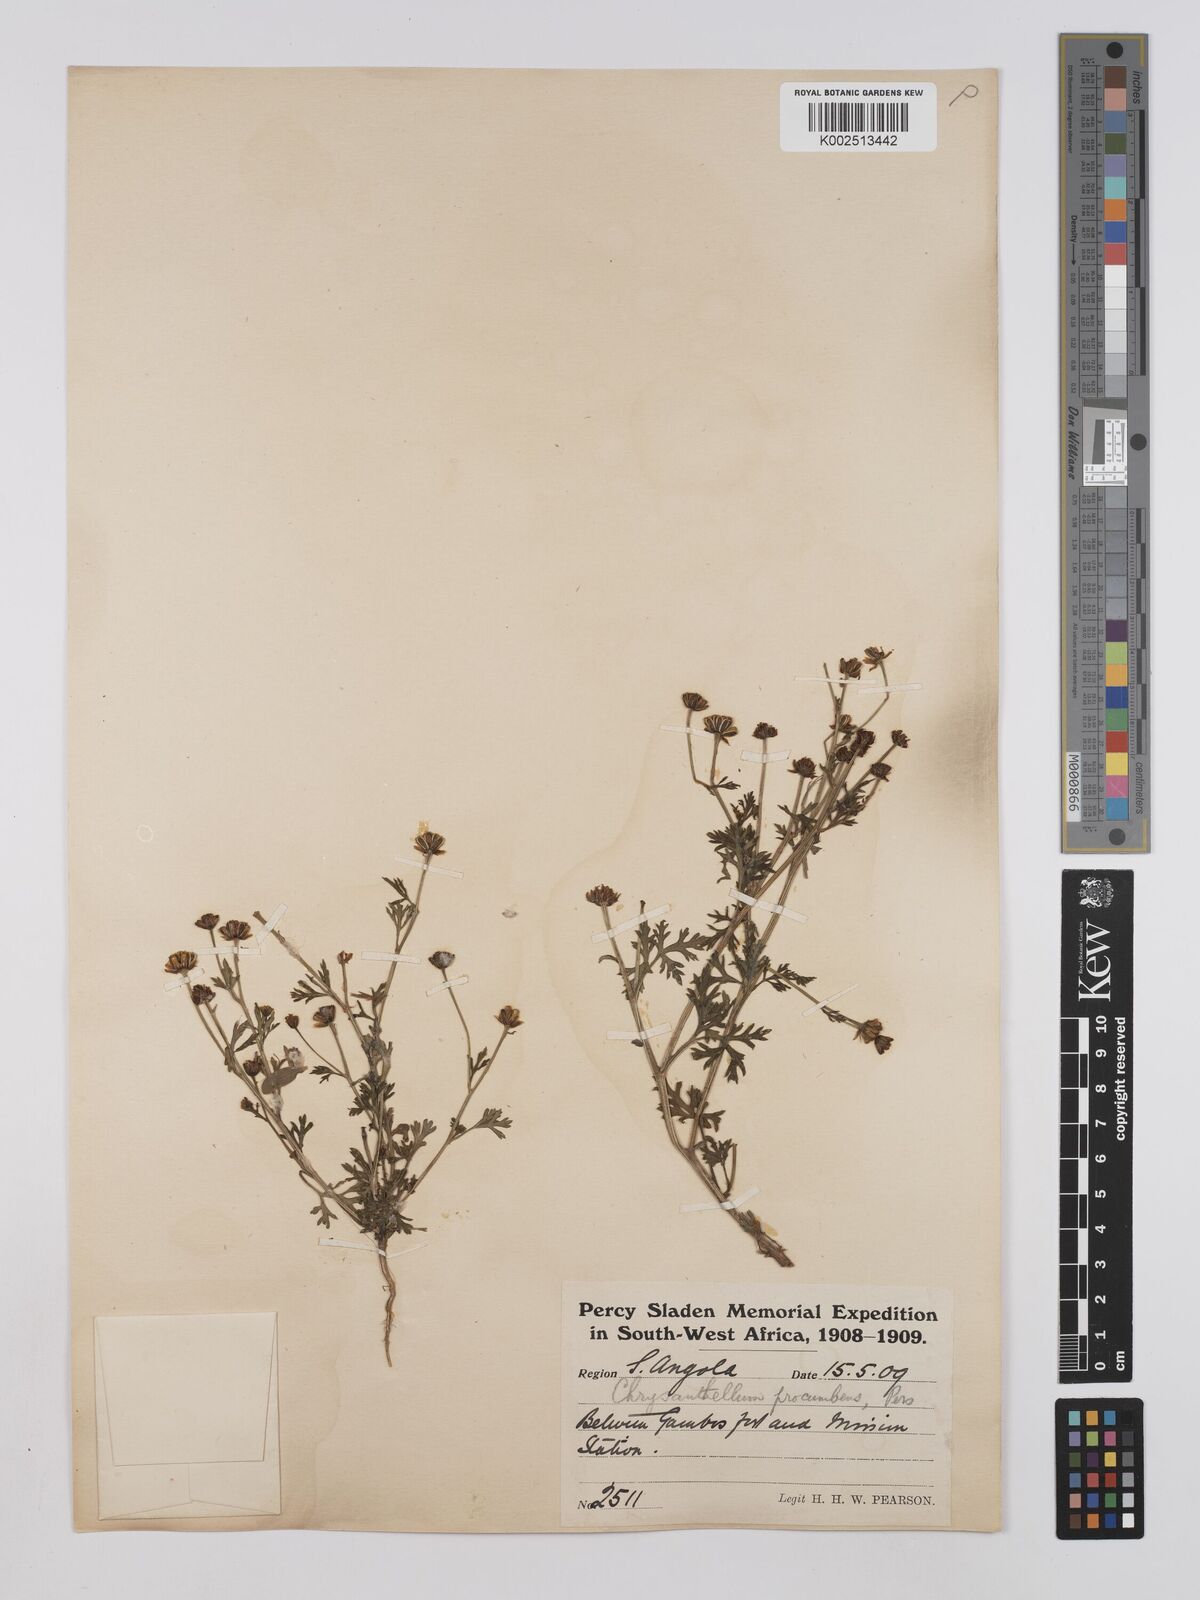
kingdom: Plantae
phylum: Tracheophyta
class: Magnoliopsida
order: Asterales
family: Asteraceae
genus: Chrysanthellum
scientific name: Chrysanthellum indicum
